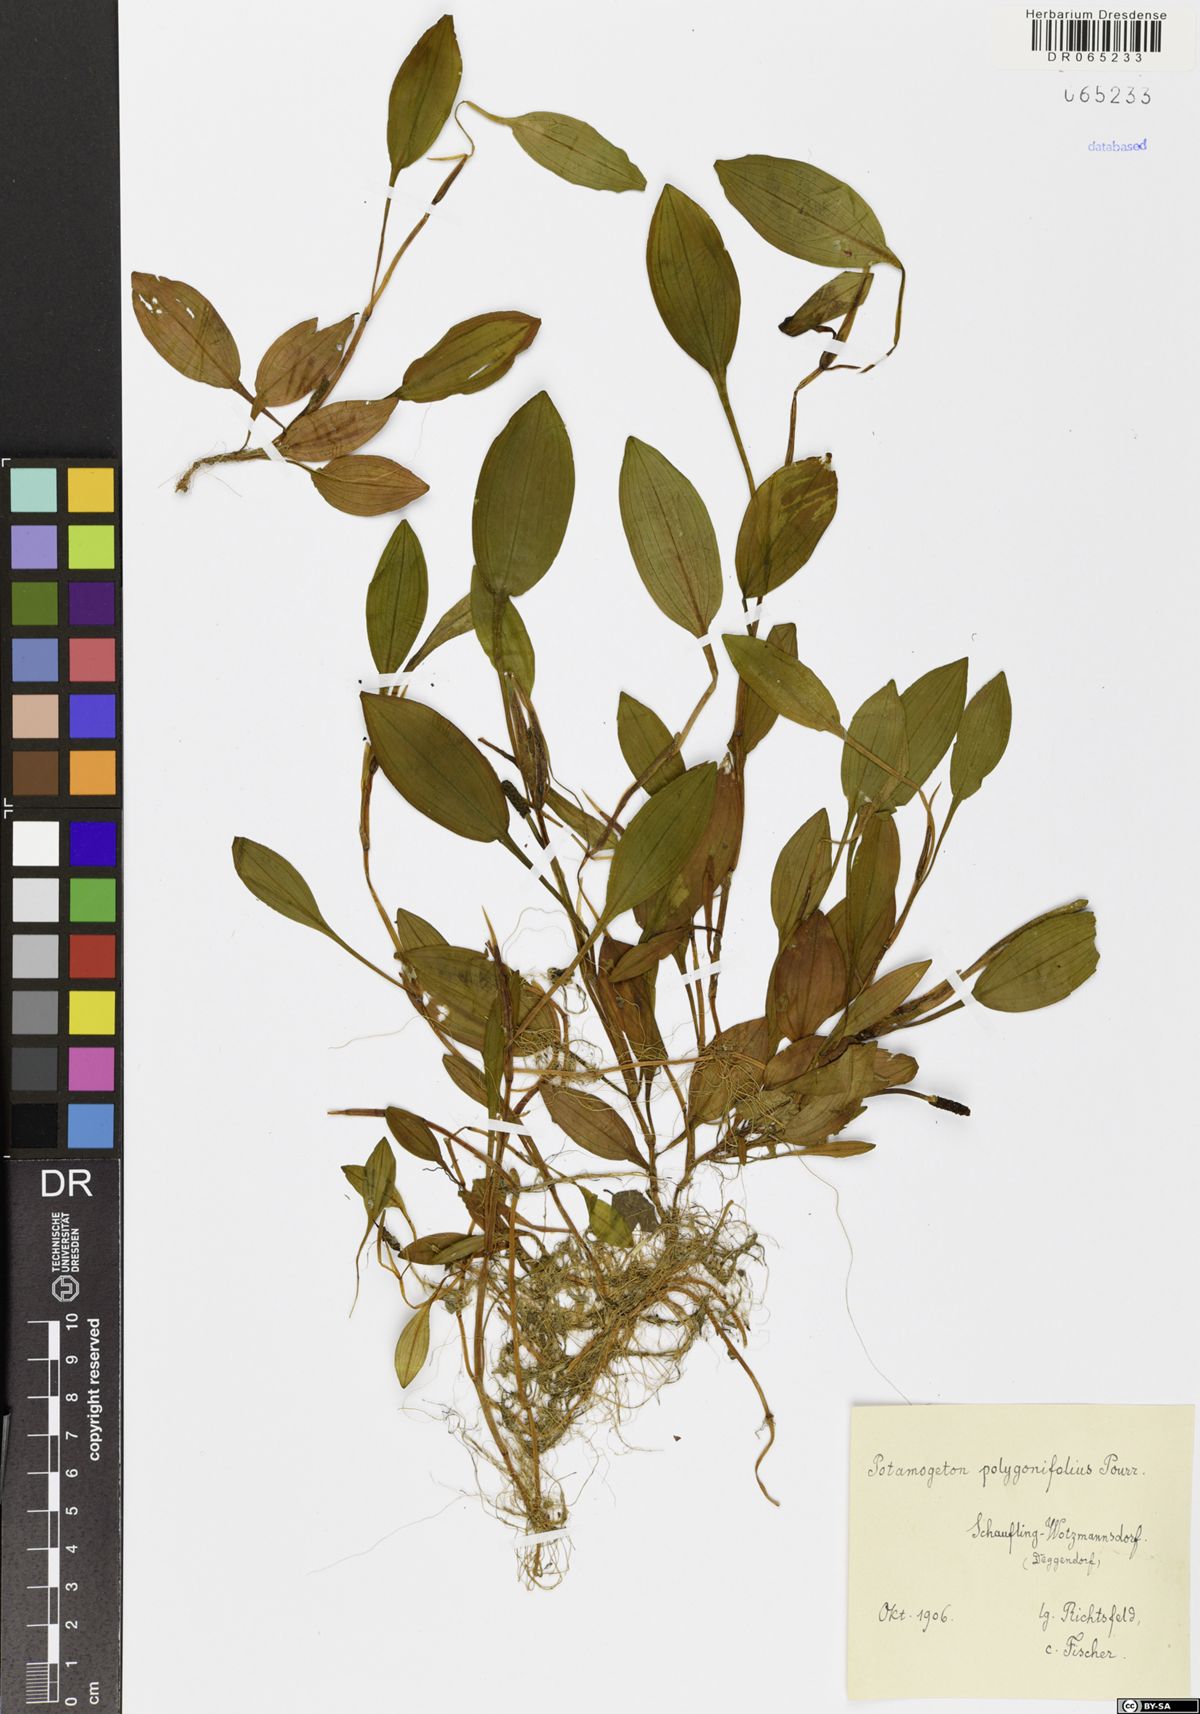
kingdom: Plantae
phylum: Tracheophyta
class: Liliopsida
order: Alismatales
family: Potamogetonaceae
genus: Potamogeton
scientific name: Potamogeton polygonifolius
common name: Bog pondweed
